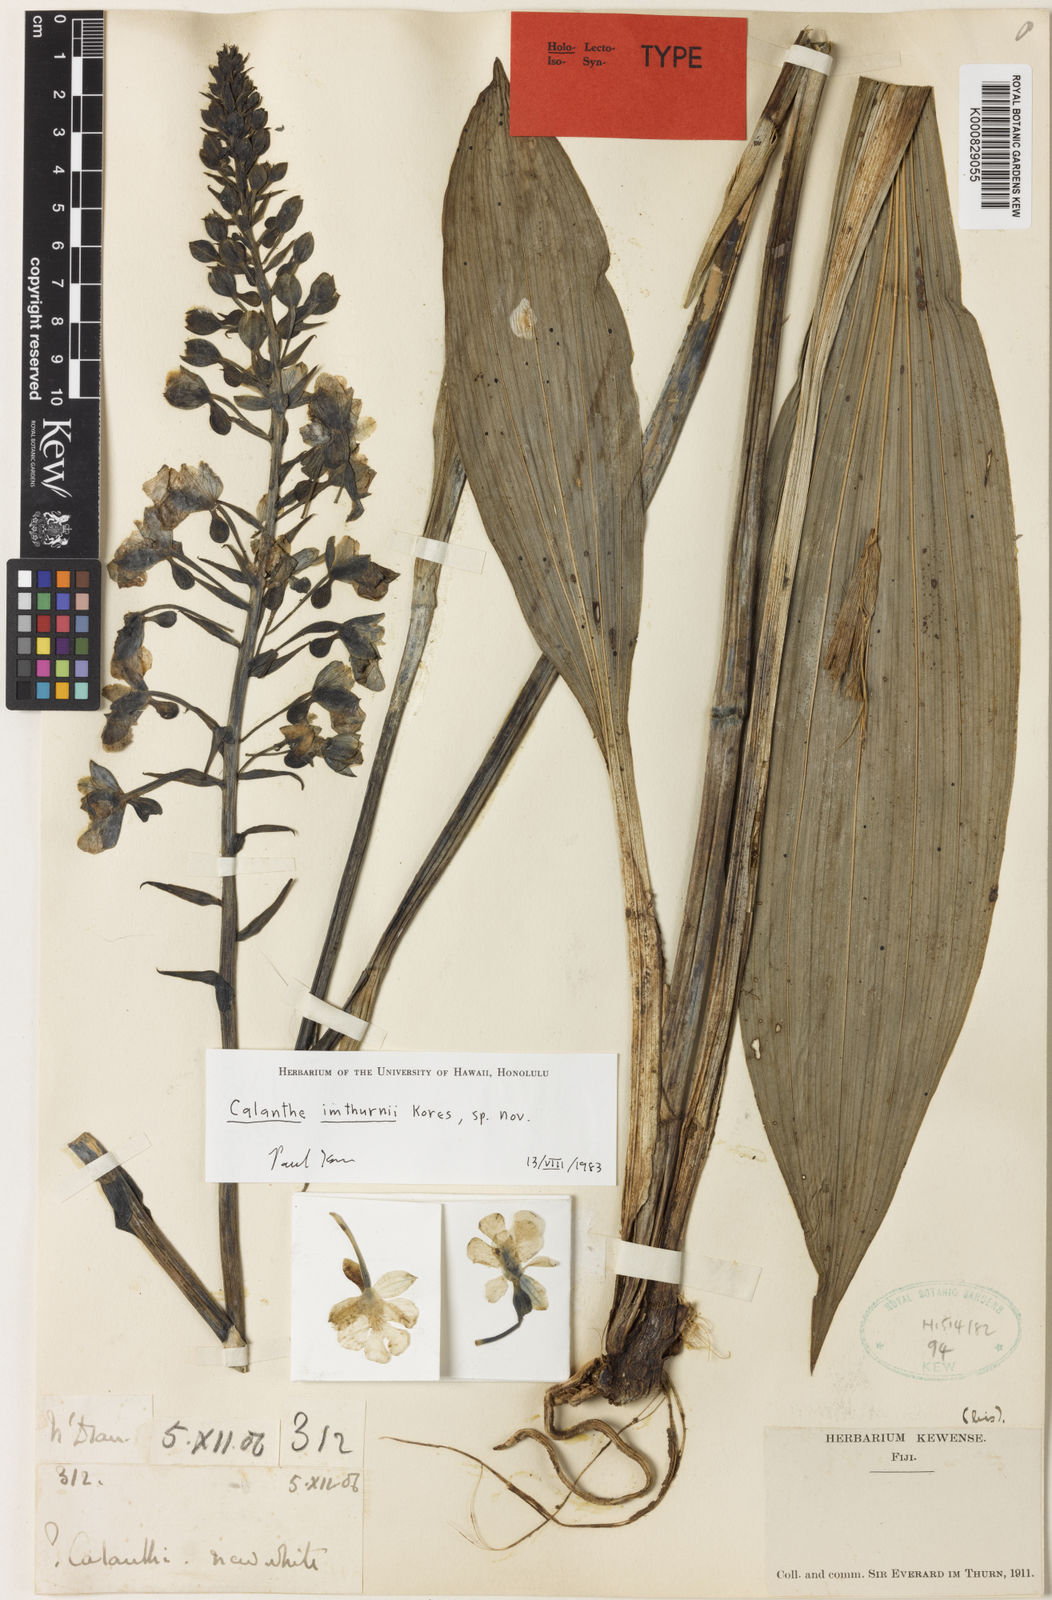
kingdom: Plantae
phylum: Tracheophyta
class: Liliopsida
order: Asparagales
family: Orchidaceae
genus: Calanthe
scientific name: Calanthe imthurnii
